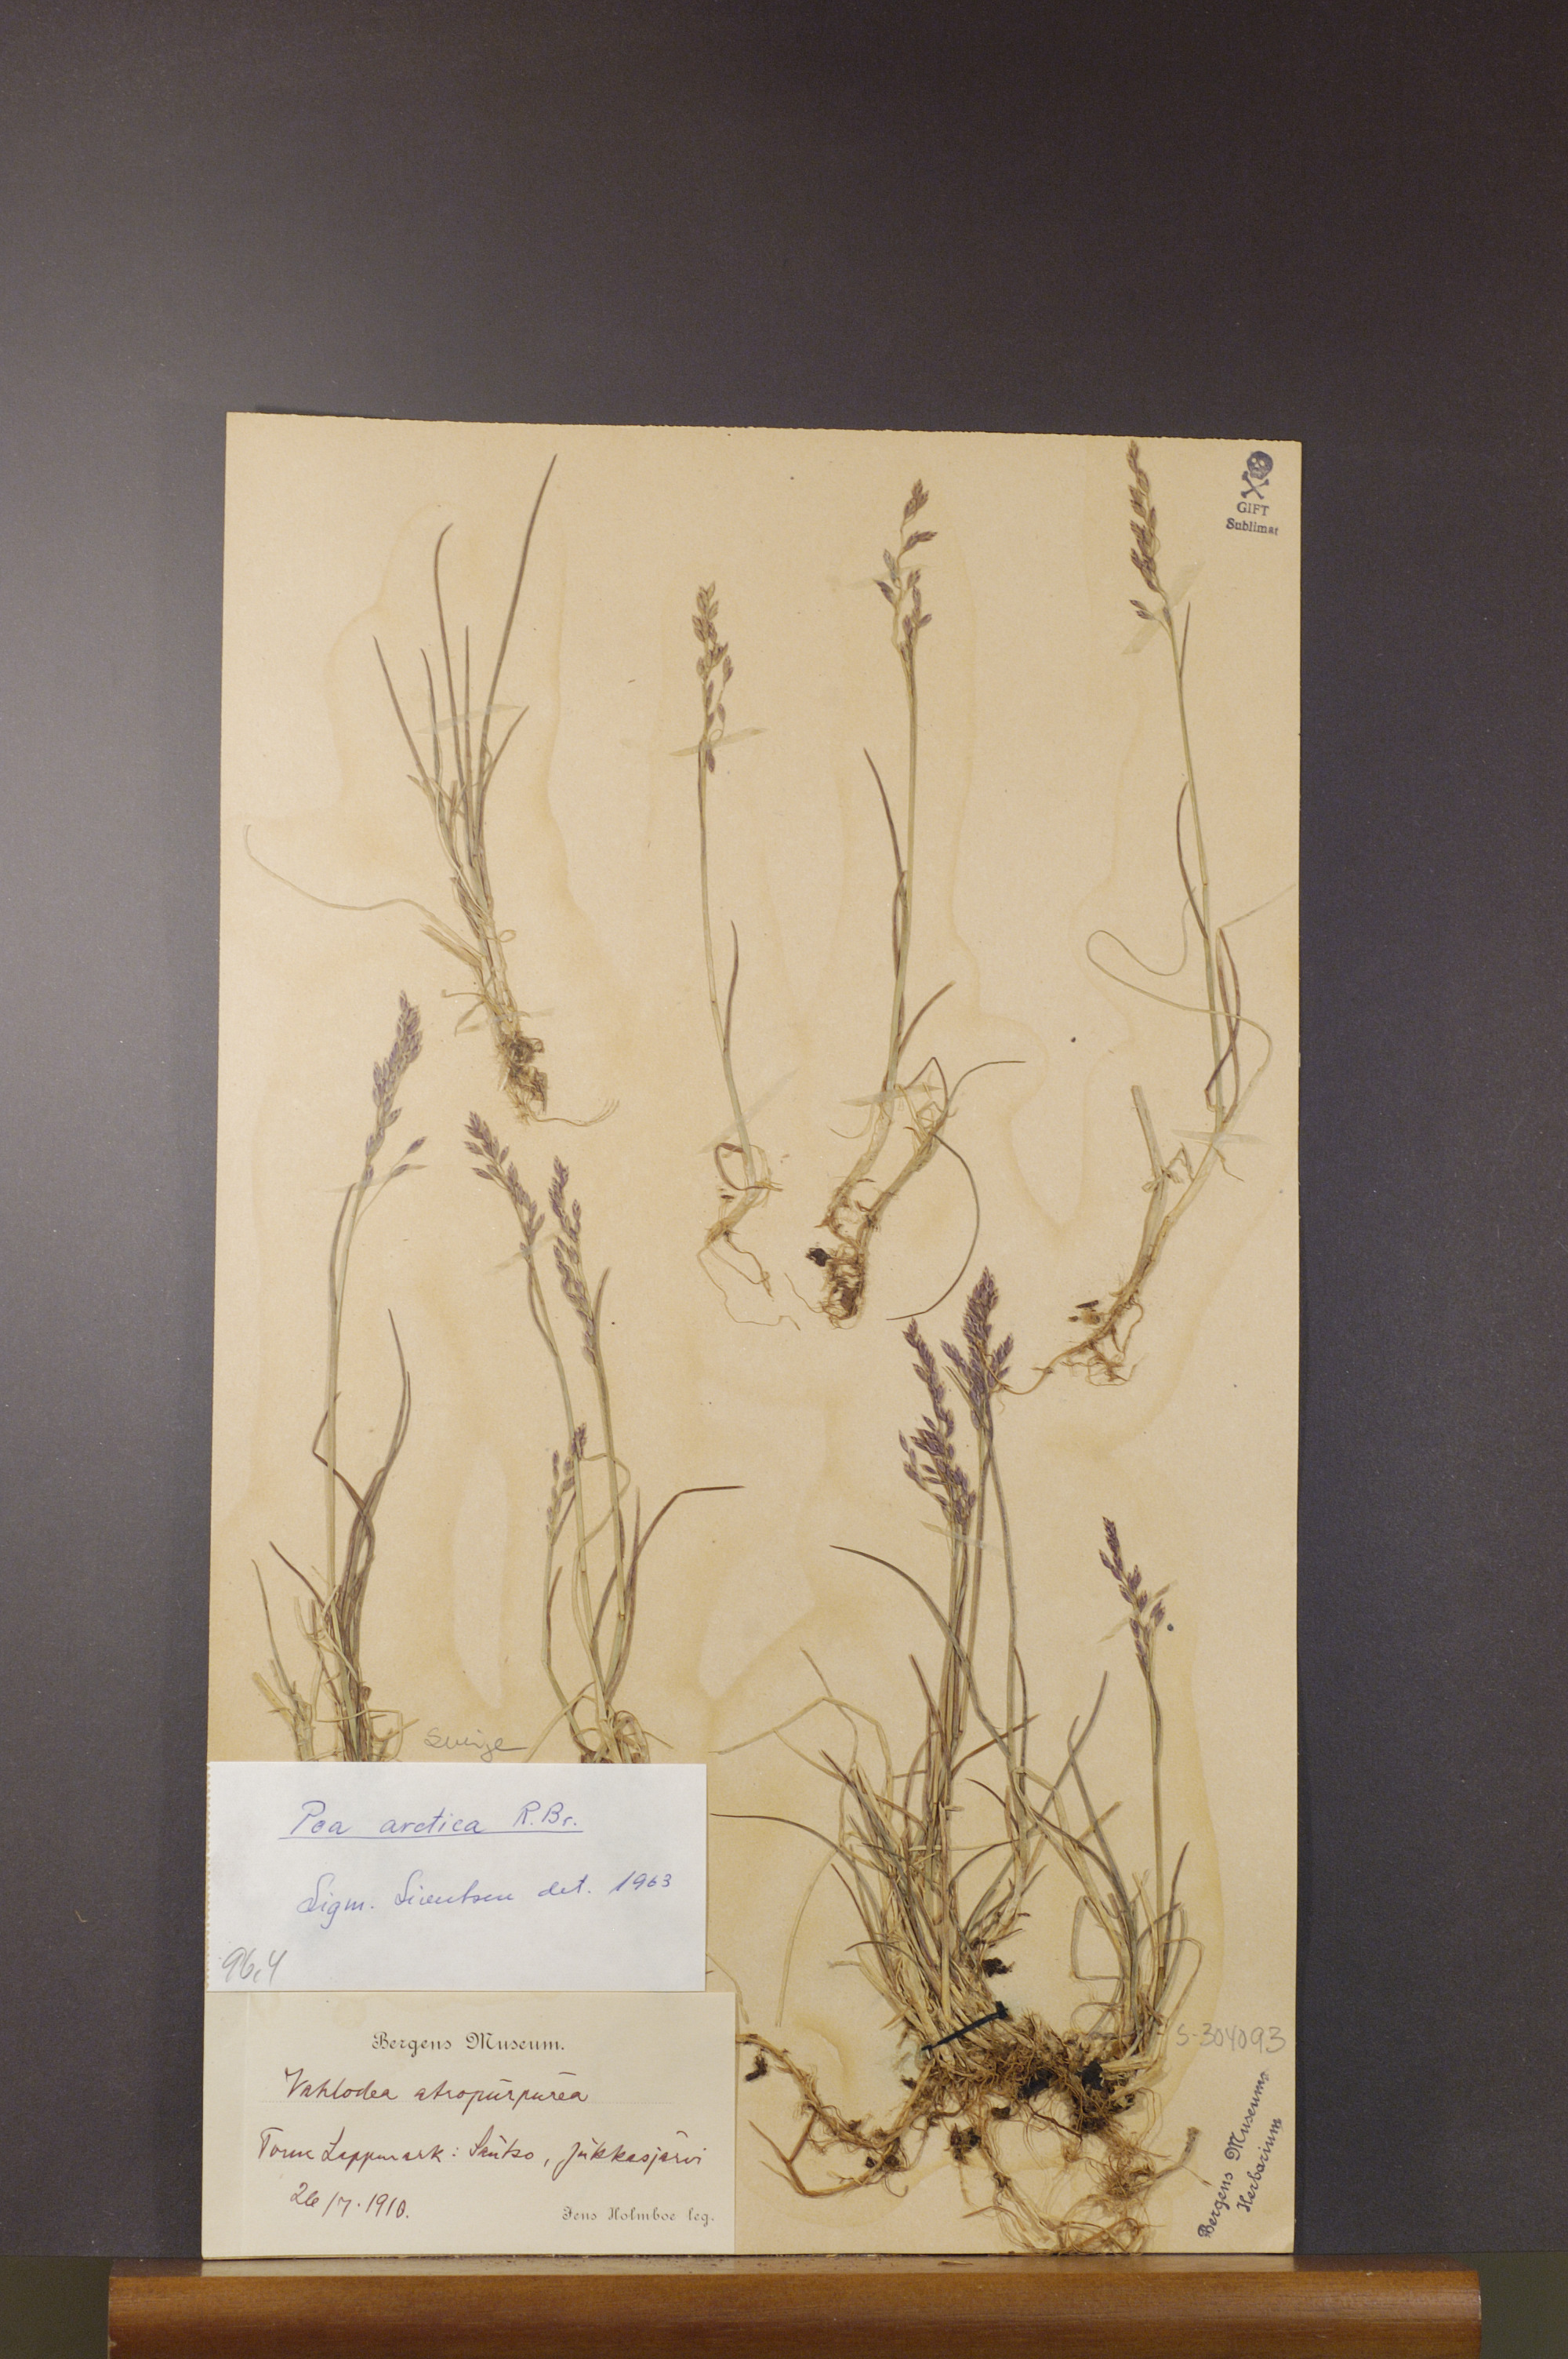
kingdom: Plantae
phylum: Tracheophyta
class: Liliopsida
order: Poales
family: Poaceae
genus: Poa
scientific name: Poa arctica
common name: Arctic bluegrass
